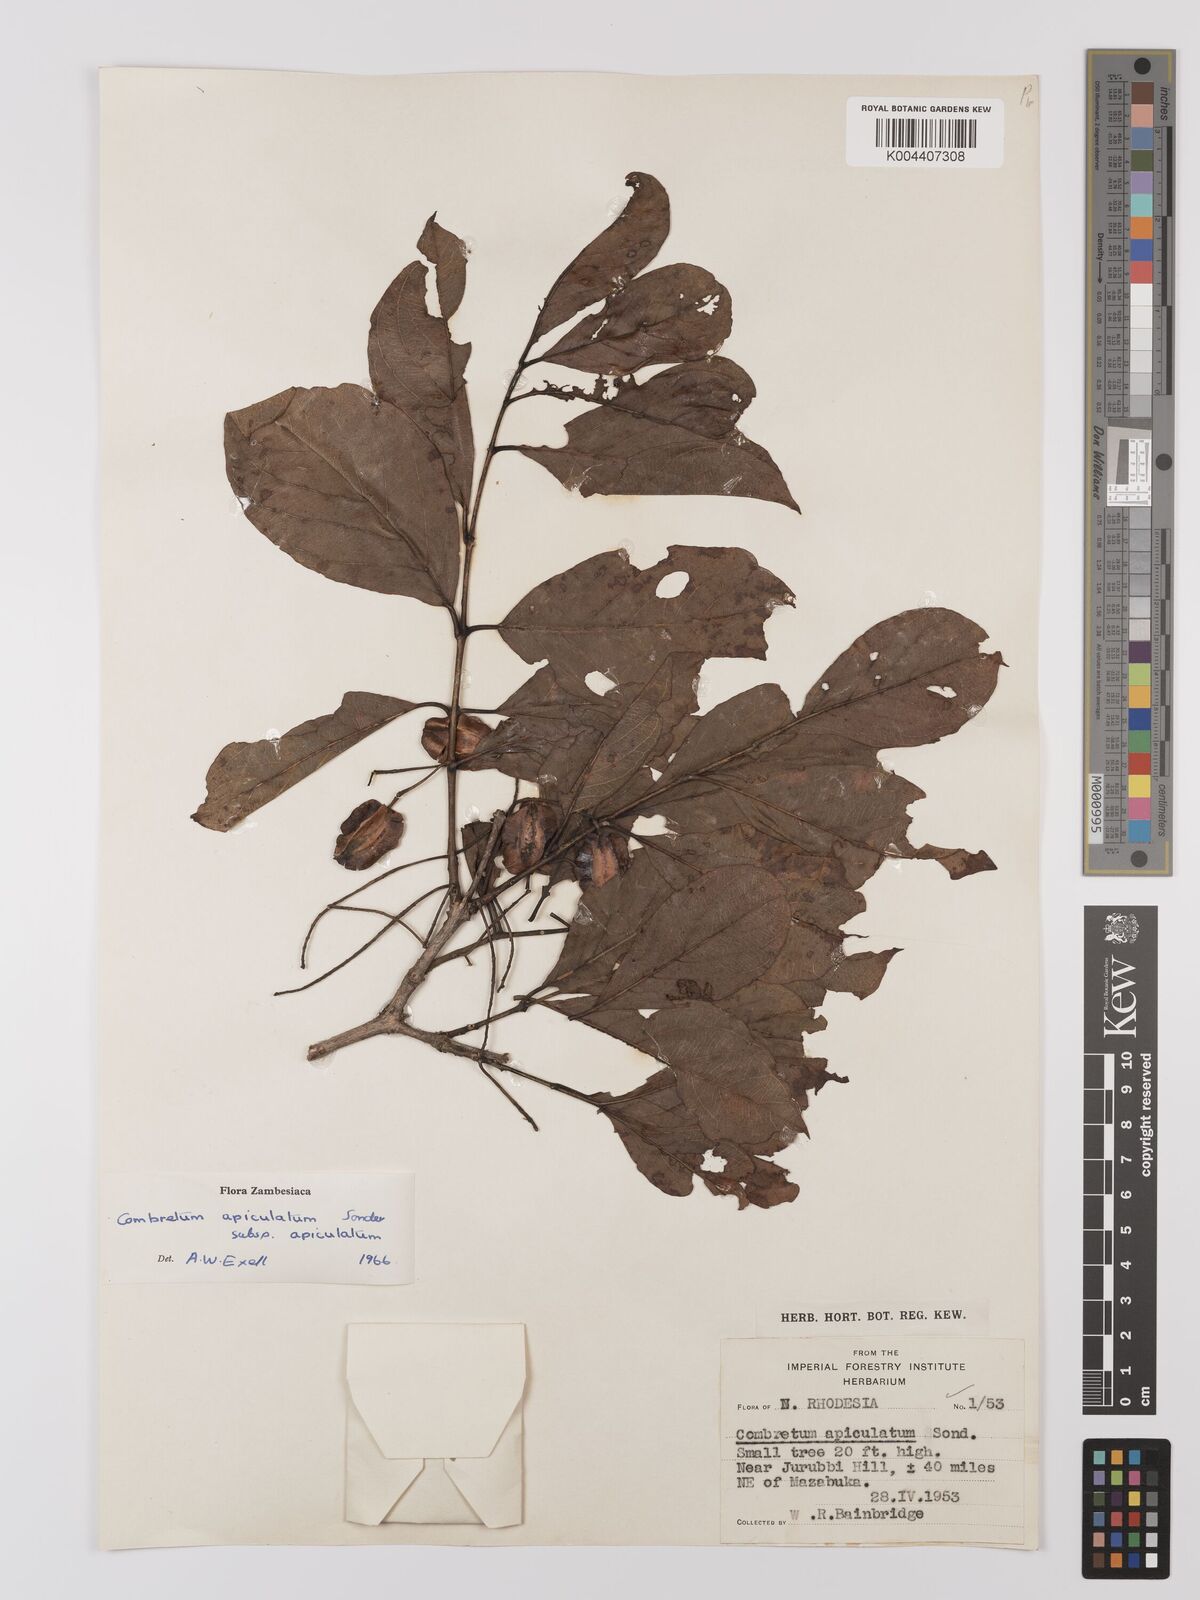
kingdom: Plantae
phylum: Tracheophyta
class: Magnoliopsida
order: Myrtales
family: Combretaceae
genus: Combretum
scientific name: Combretum apiculatum
